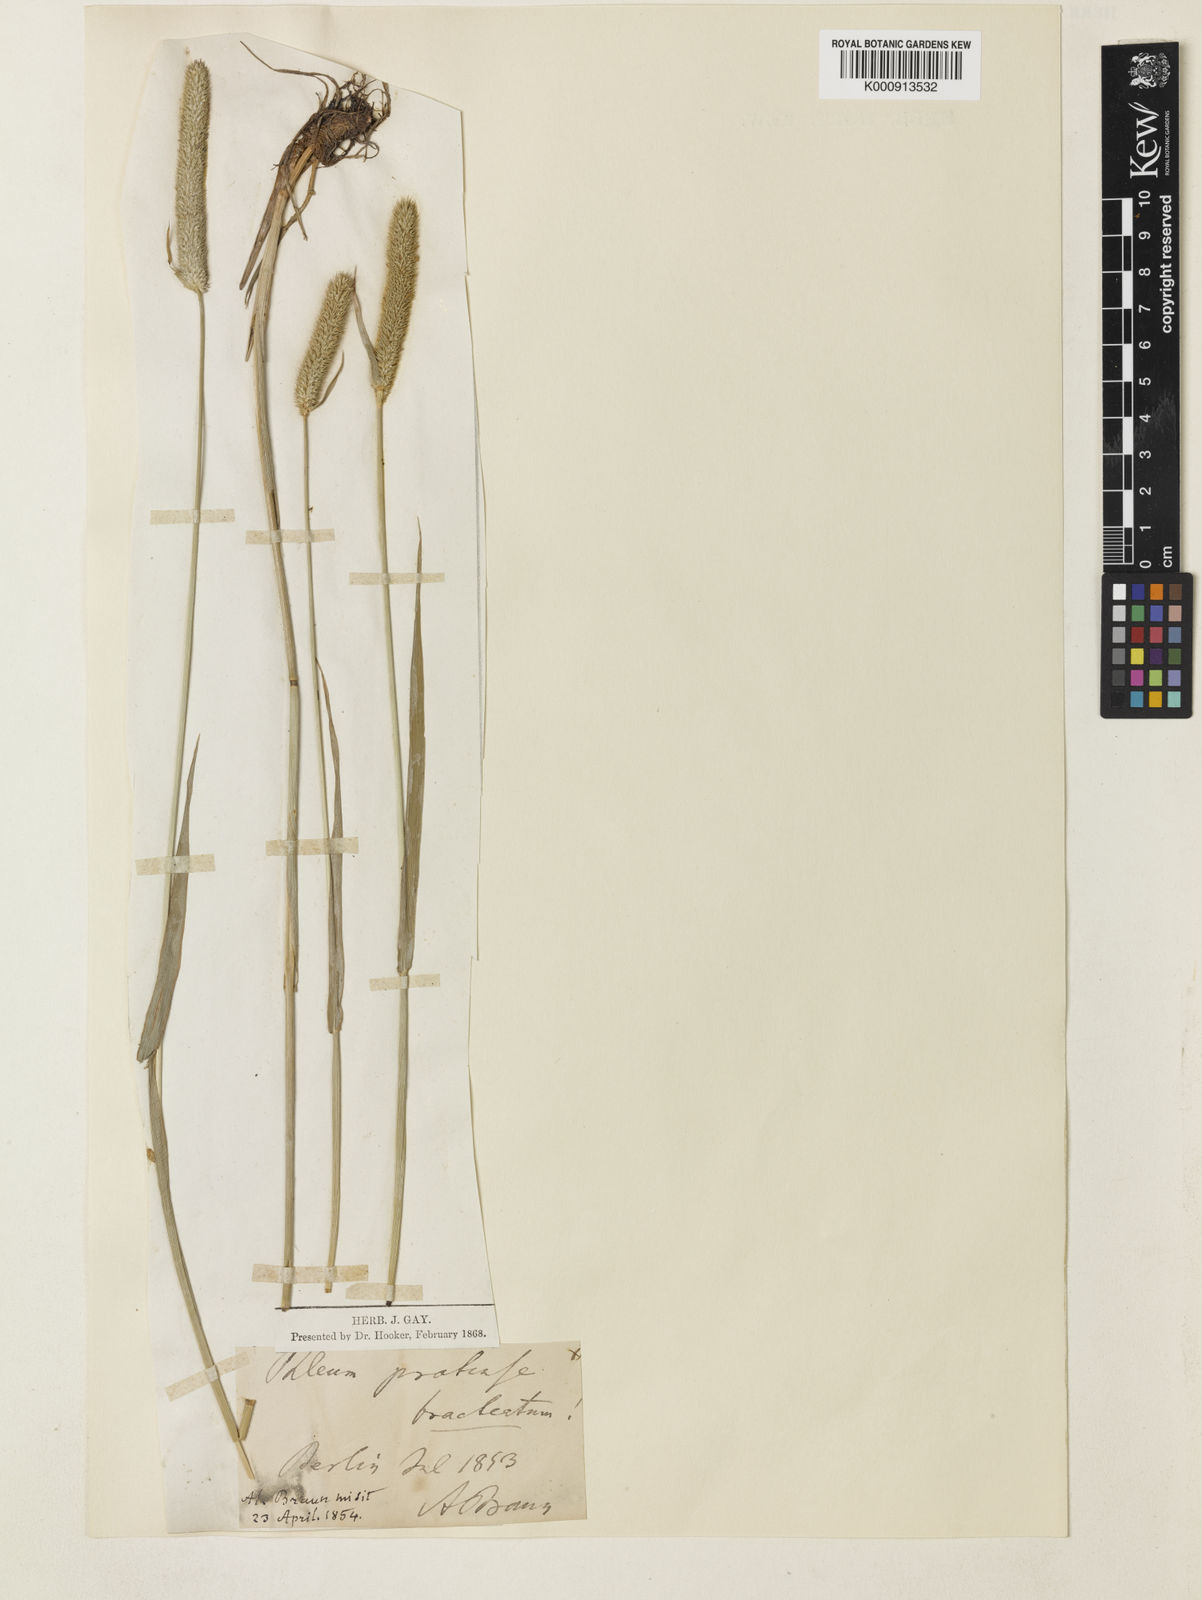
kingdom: Plantae
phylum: Tracheophyta
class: Liliopsida
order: Poales
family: Poaceae
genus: Phleum
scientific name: Phleum pratense
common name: Timothy grass
